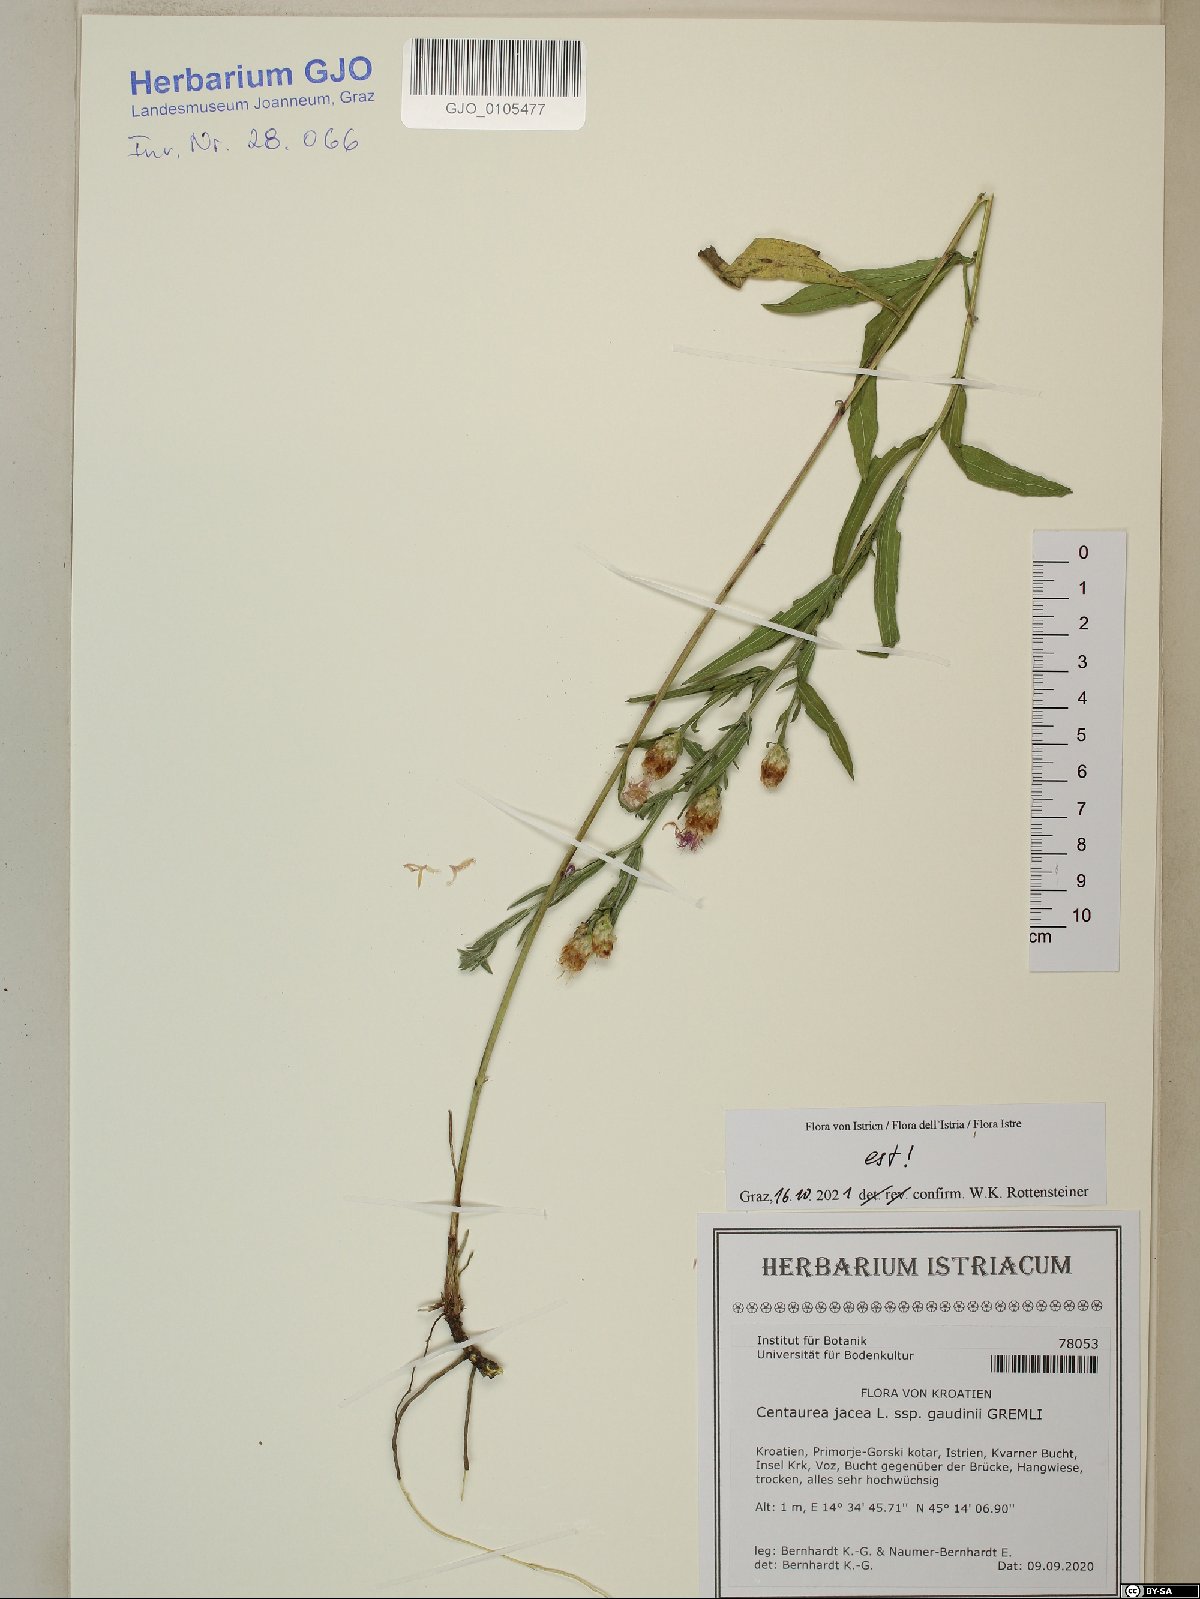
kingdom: Plantae
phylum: Tracheophyta
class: Magnoliopsida
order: Asterales
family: Asteraceae
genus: Centaurea
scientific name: Centaurea jacea
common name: Brown knapweed
